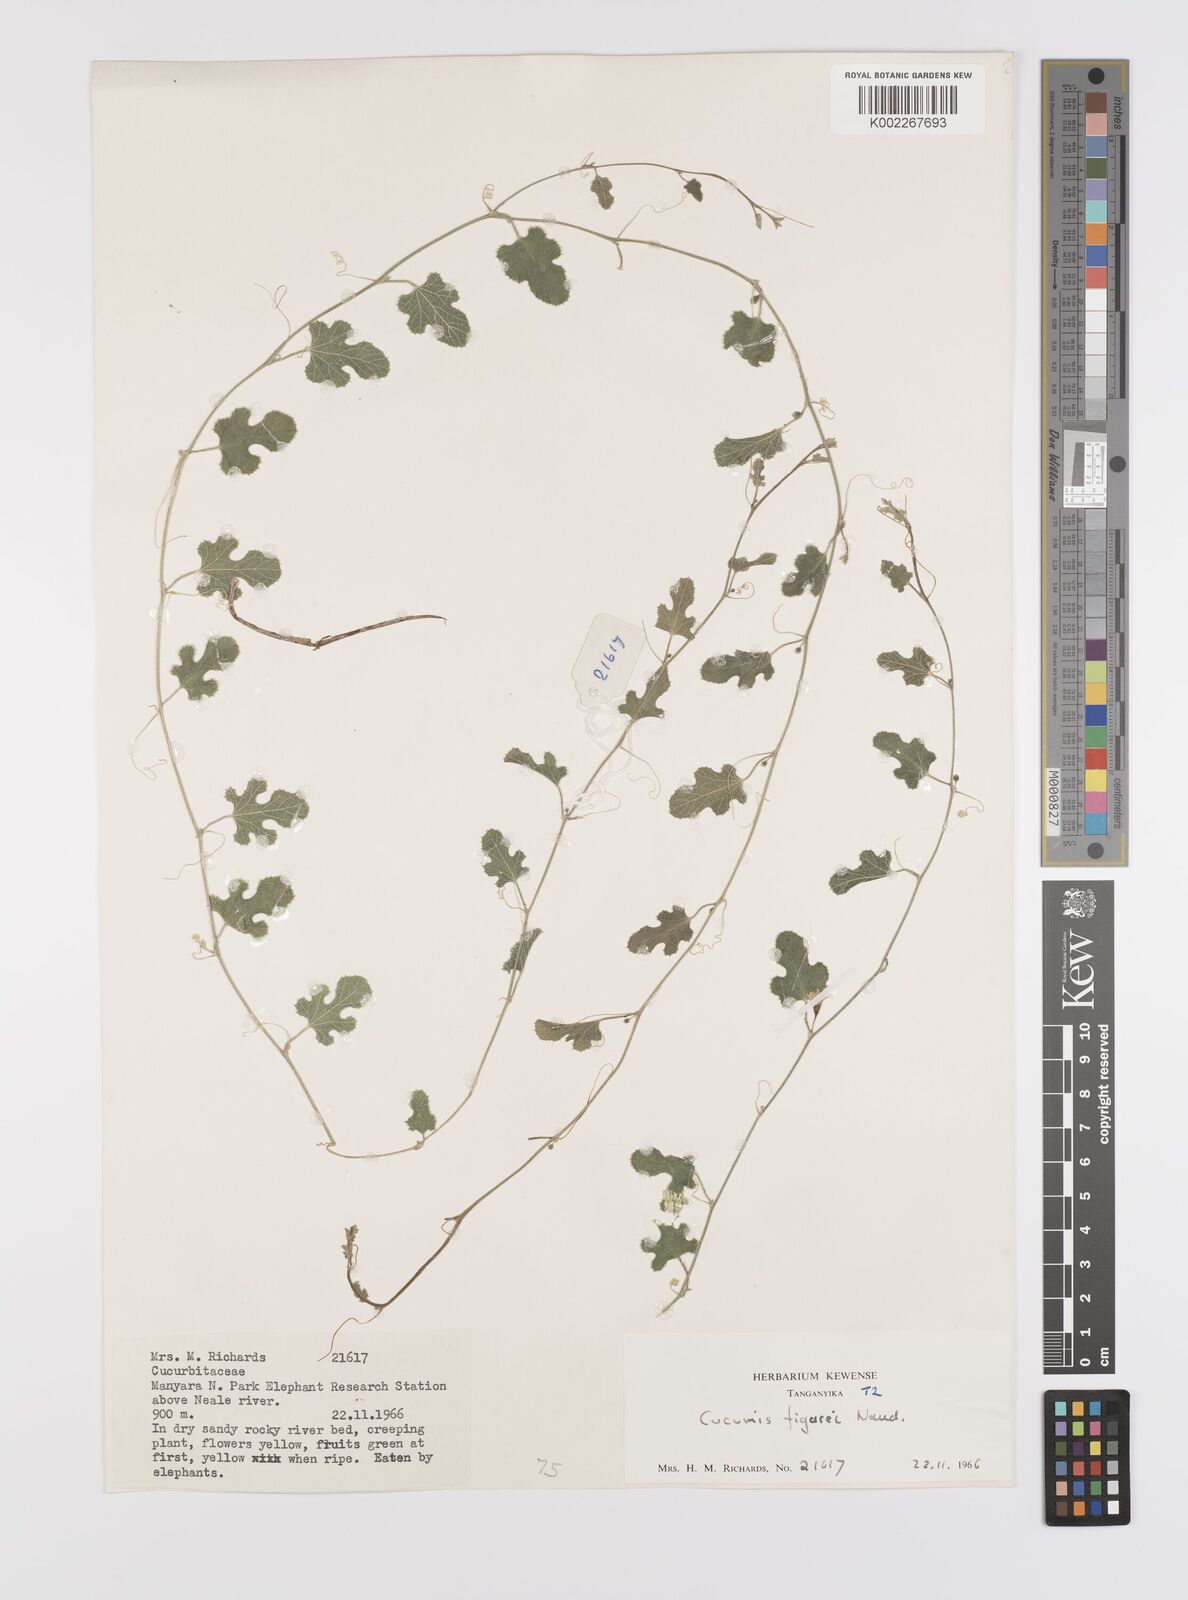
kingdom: Plantae
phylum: Tracheophyta
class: Magnoliopsida
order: Cucurbitales
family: Cucurbitaceae
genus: Cucumis
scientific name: Cucumis
